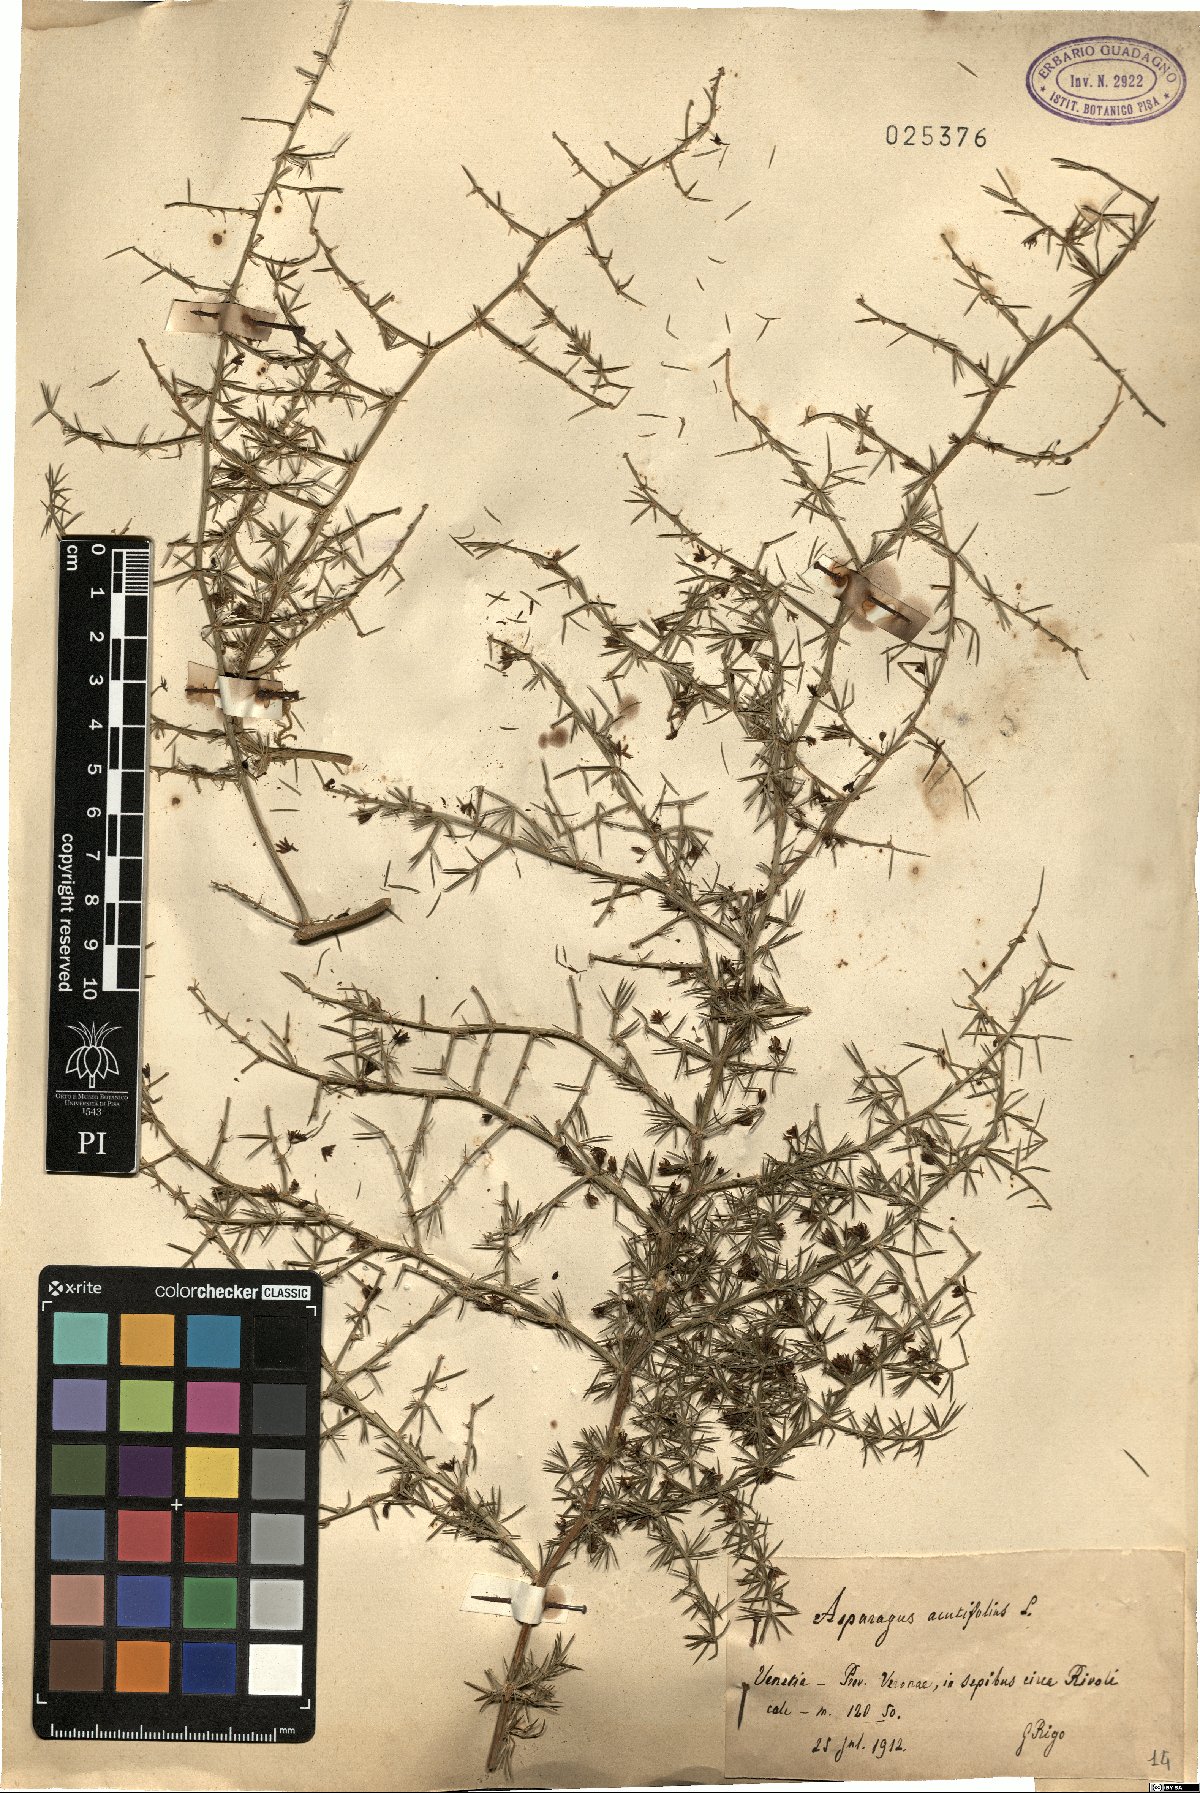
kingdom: Plantae
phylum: Tracheophyta
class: Liliopsida
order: Asparagales
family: Asparagaceae
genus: Asparagus
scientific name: Asparagus acutifolius
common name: Wild asparagus
